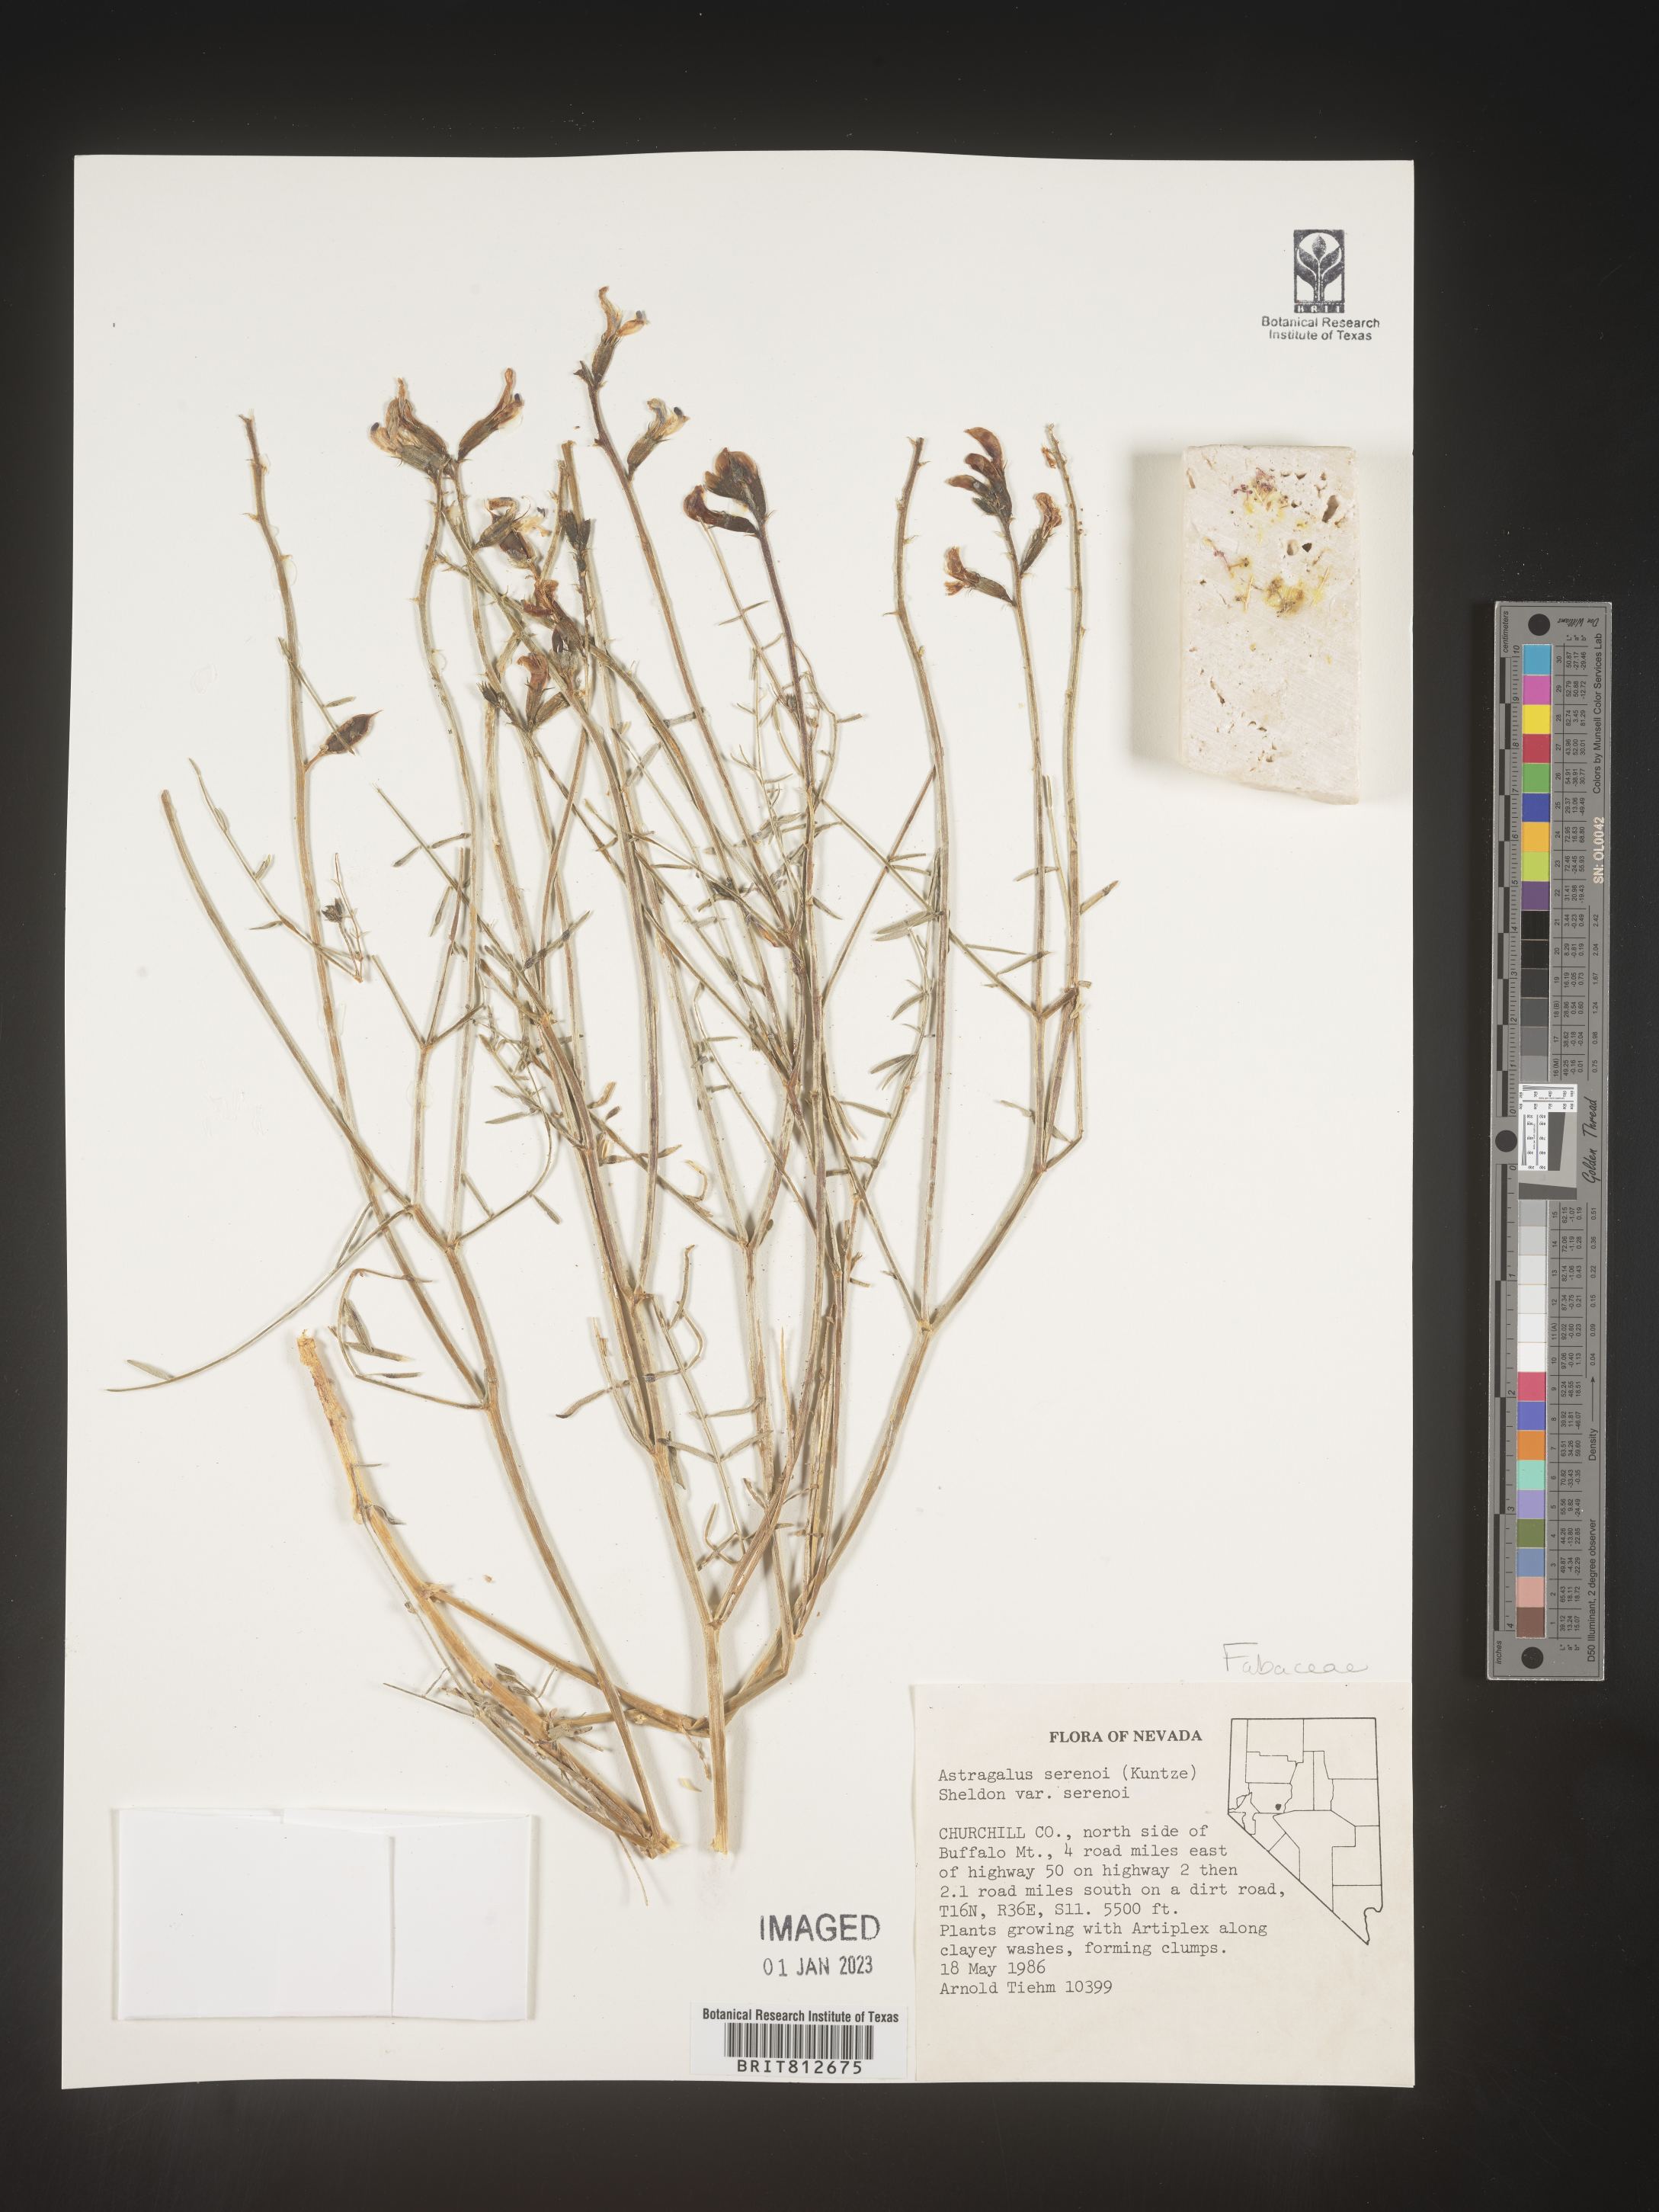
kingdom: Plantae
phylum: Tracheophyta
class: Magnoliopsida
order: Fabales
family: Fabaceae
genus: Astragalus
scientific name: Astragalus
